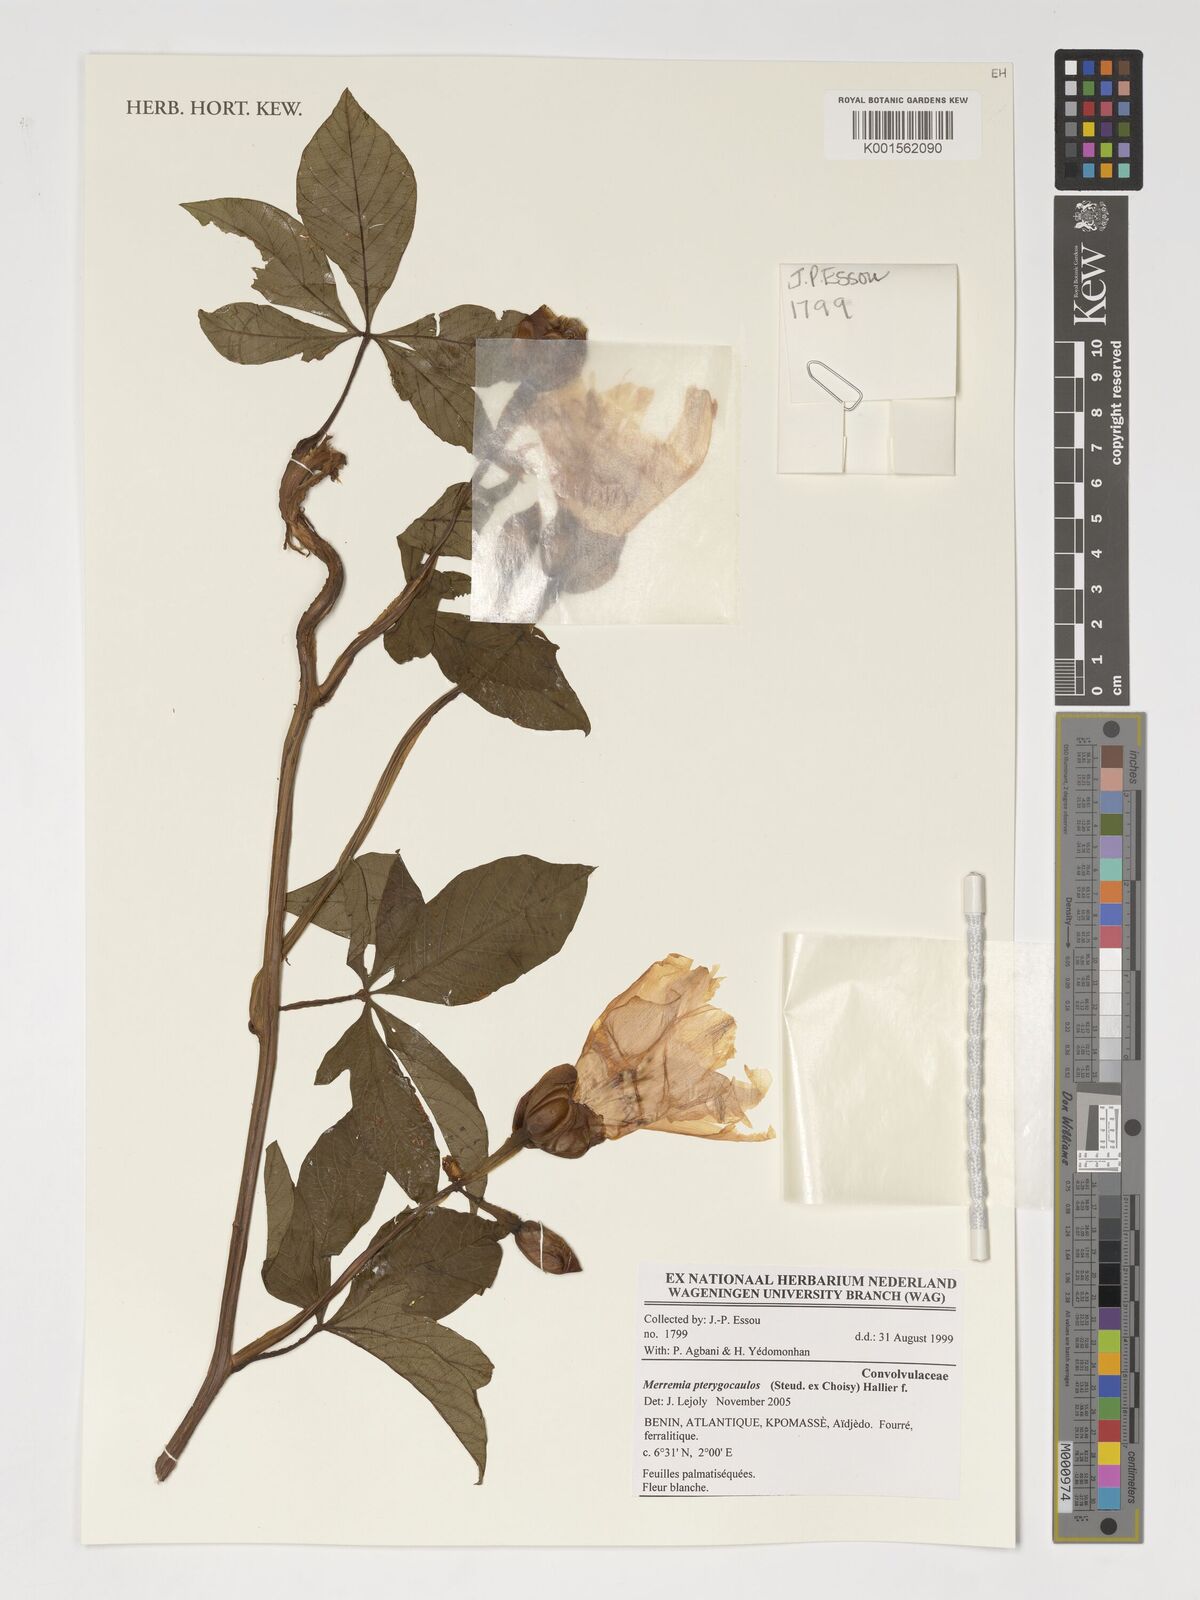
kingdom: Plantae
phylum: Tracheophyta
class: Magnoliopsida
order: Solanales
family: Convolvulaceae
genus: Merremia
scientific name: Merremia pterygocaulos
